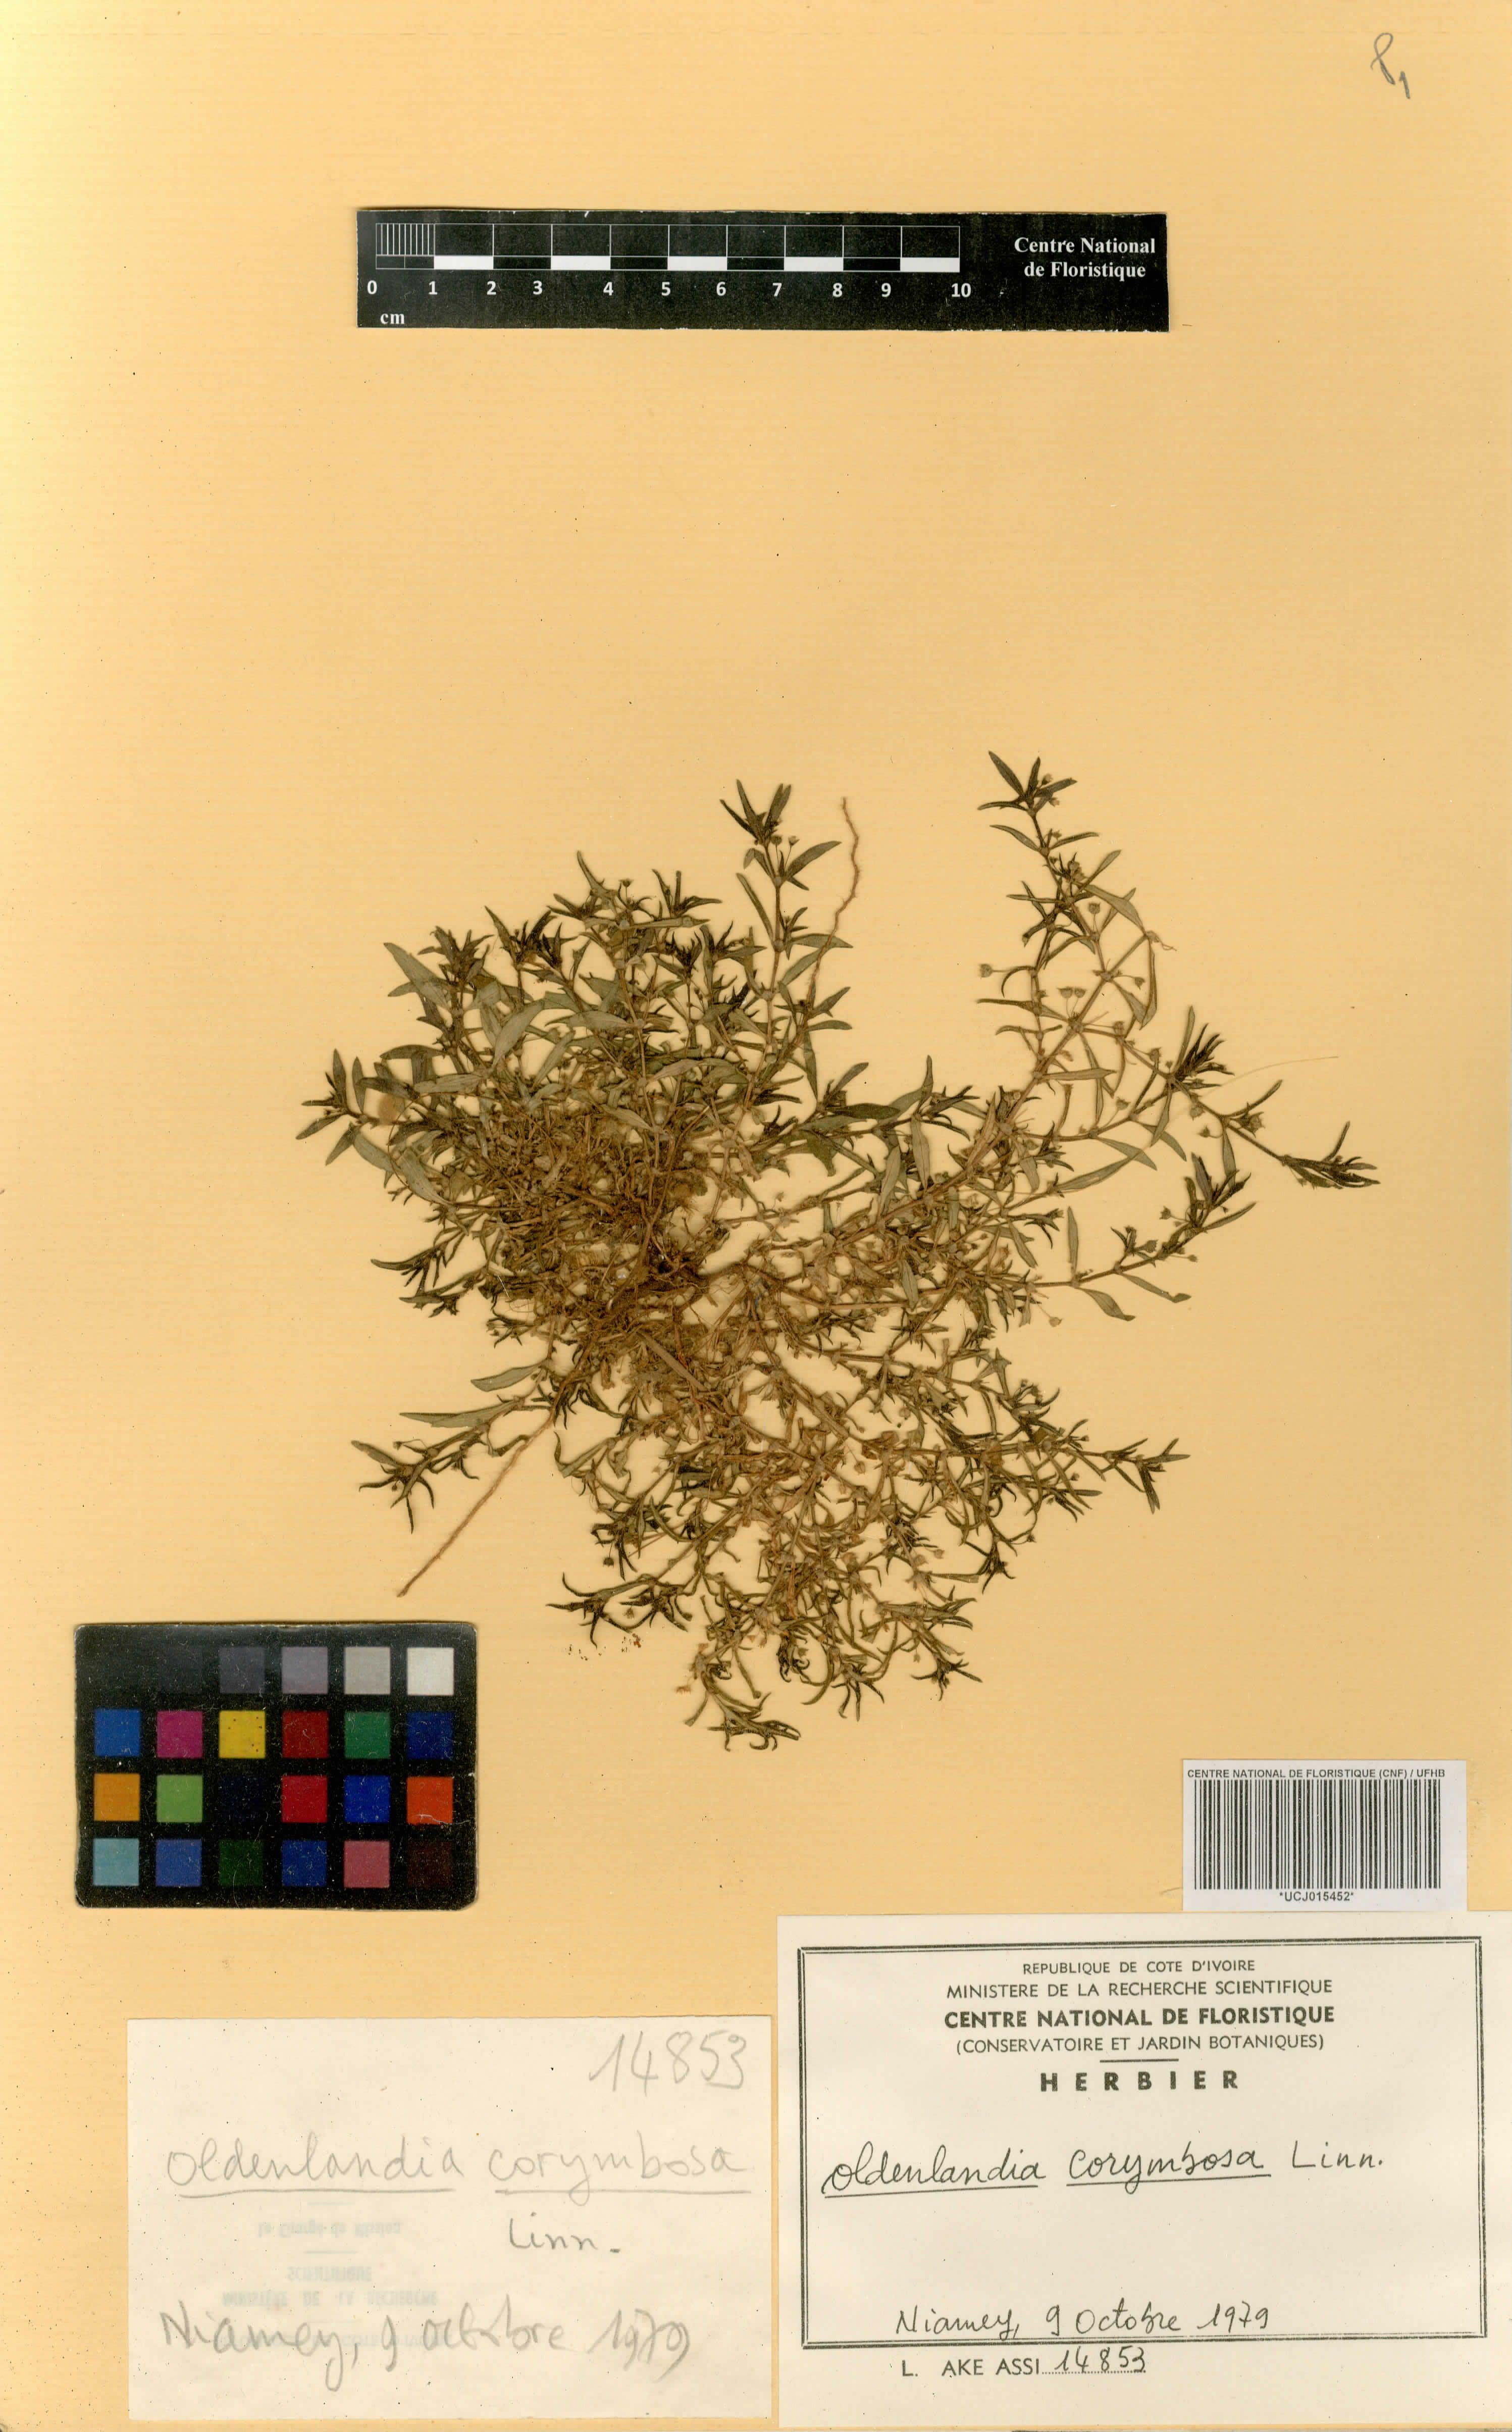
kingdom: Plantae
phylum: Tracheophyta
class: Magnoliopsida
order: Gentianales
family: Rubiaceae
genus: Oldenlandia
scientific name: Oldenlandia corymbosa
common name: Flat-top mille graines
